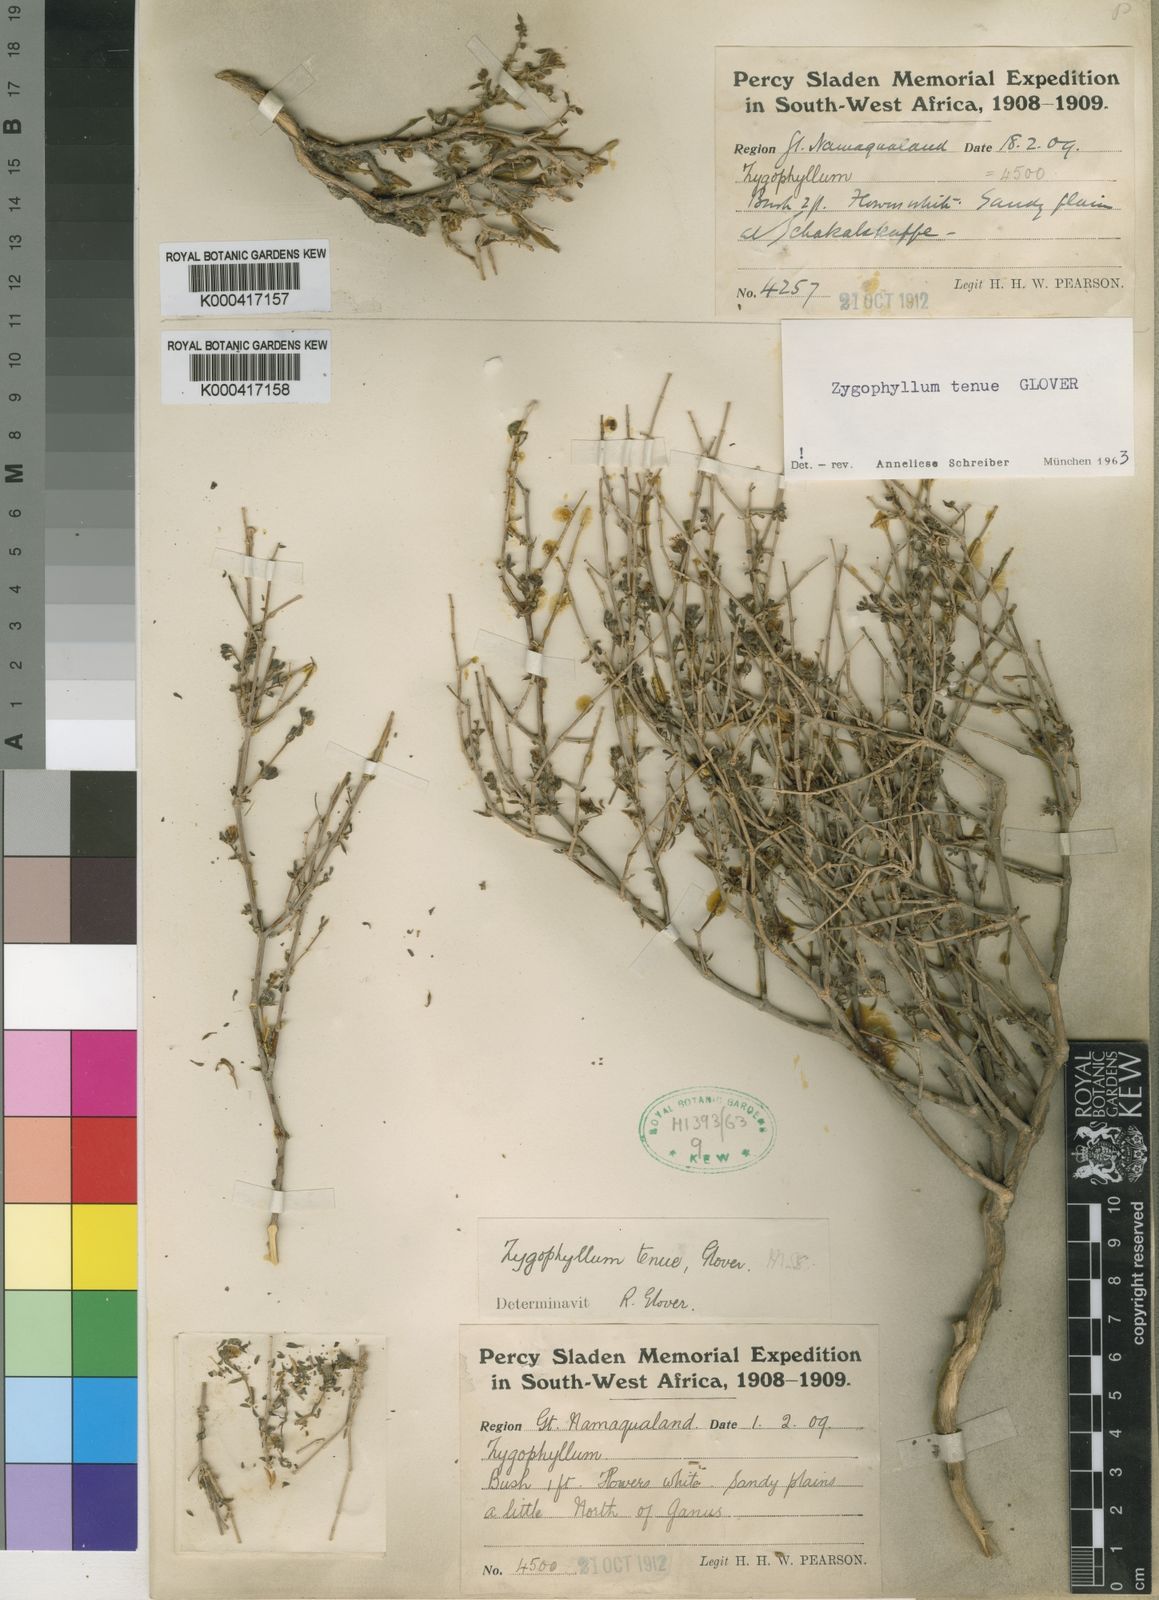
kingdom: Plantae
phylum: Tracheophyta
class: Magnoliopsida
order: Zygophyllales
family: Zygophyllaceae
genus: Tetraena
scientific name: Tetraena tenuis
